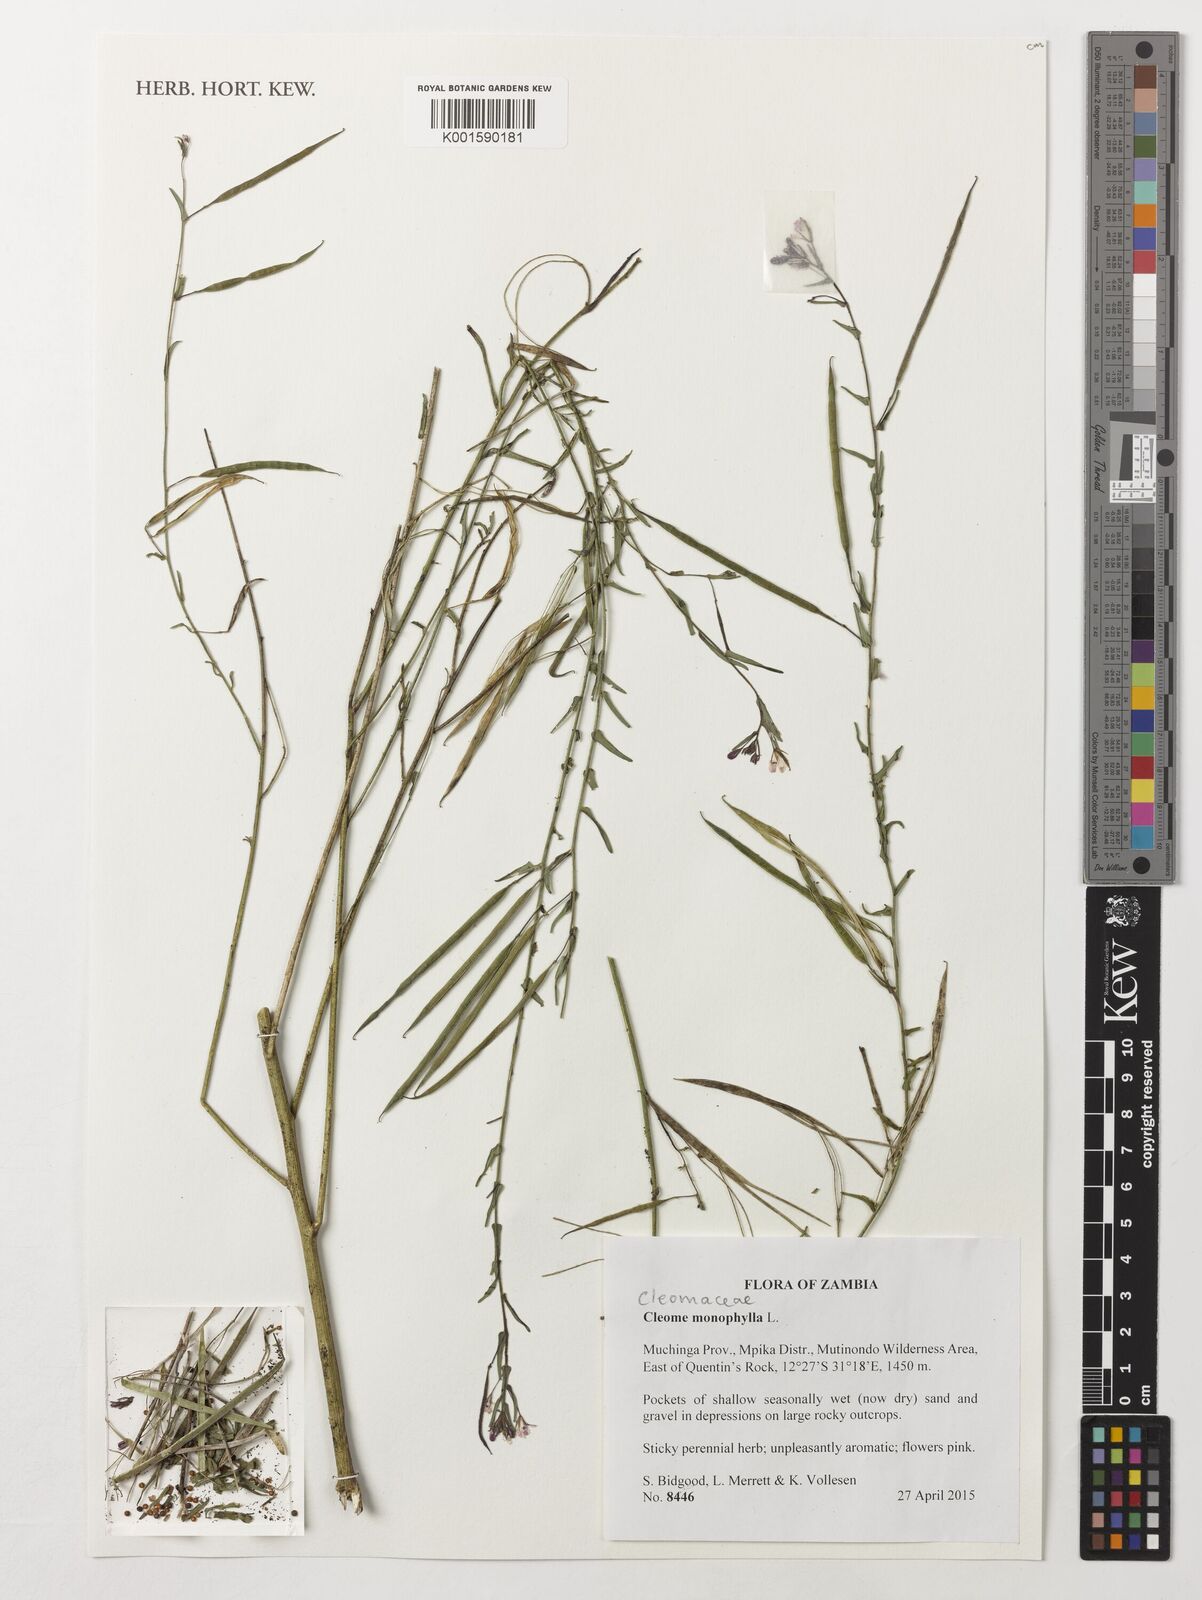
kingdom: Plantae
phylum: Tracheophyta
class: Magnoliopsida
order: Brassicales
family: Cleomaceae
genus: Sieruela
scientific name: Sieruela monophylla
